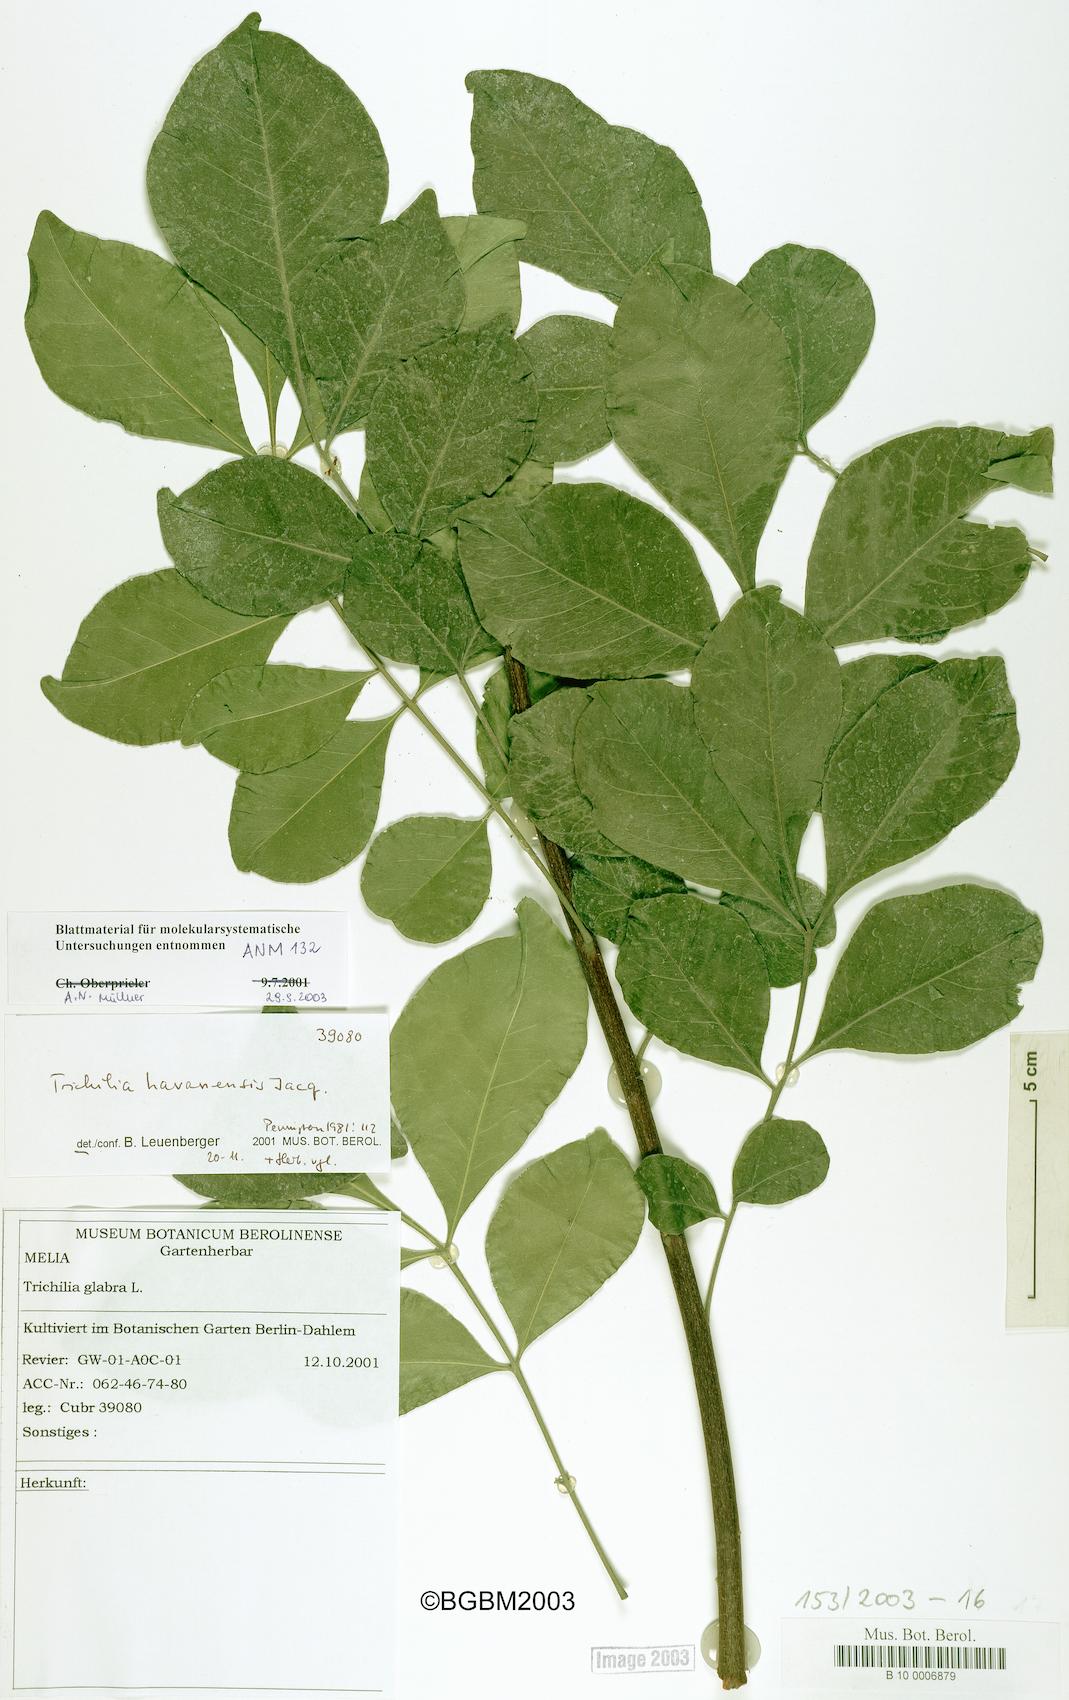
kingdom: Plantae
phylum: Tracheophyta
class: Magnoliopsida
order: Sapindales
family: Meliaceae
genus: Trichilia
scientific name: Trichilia havanensis
